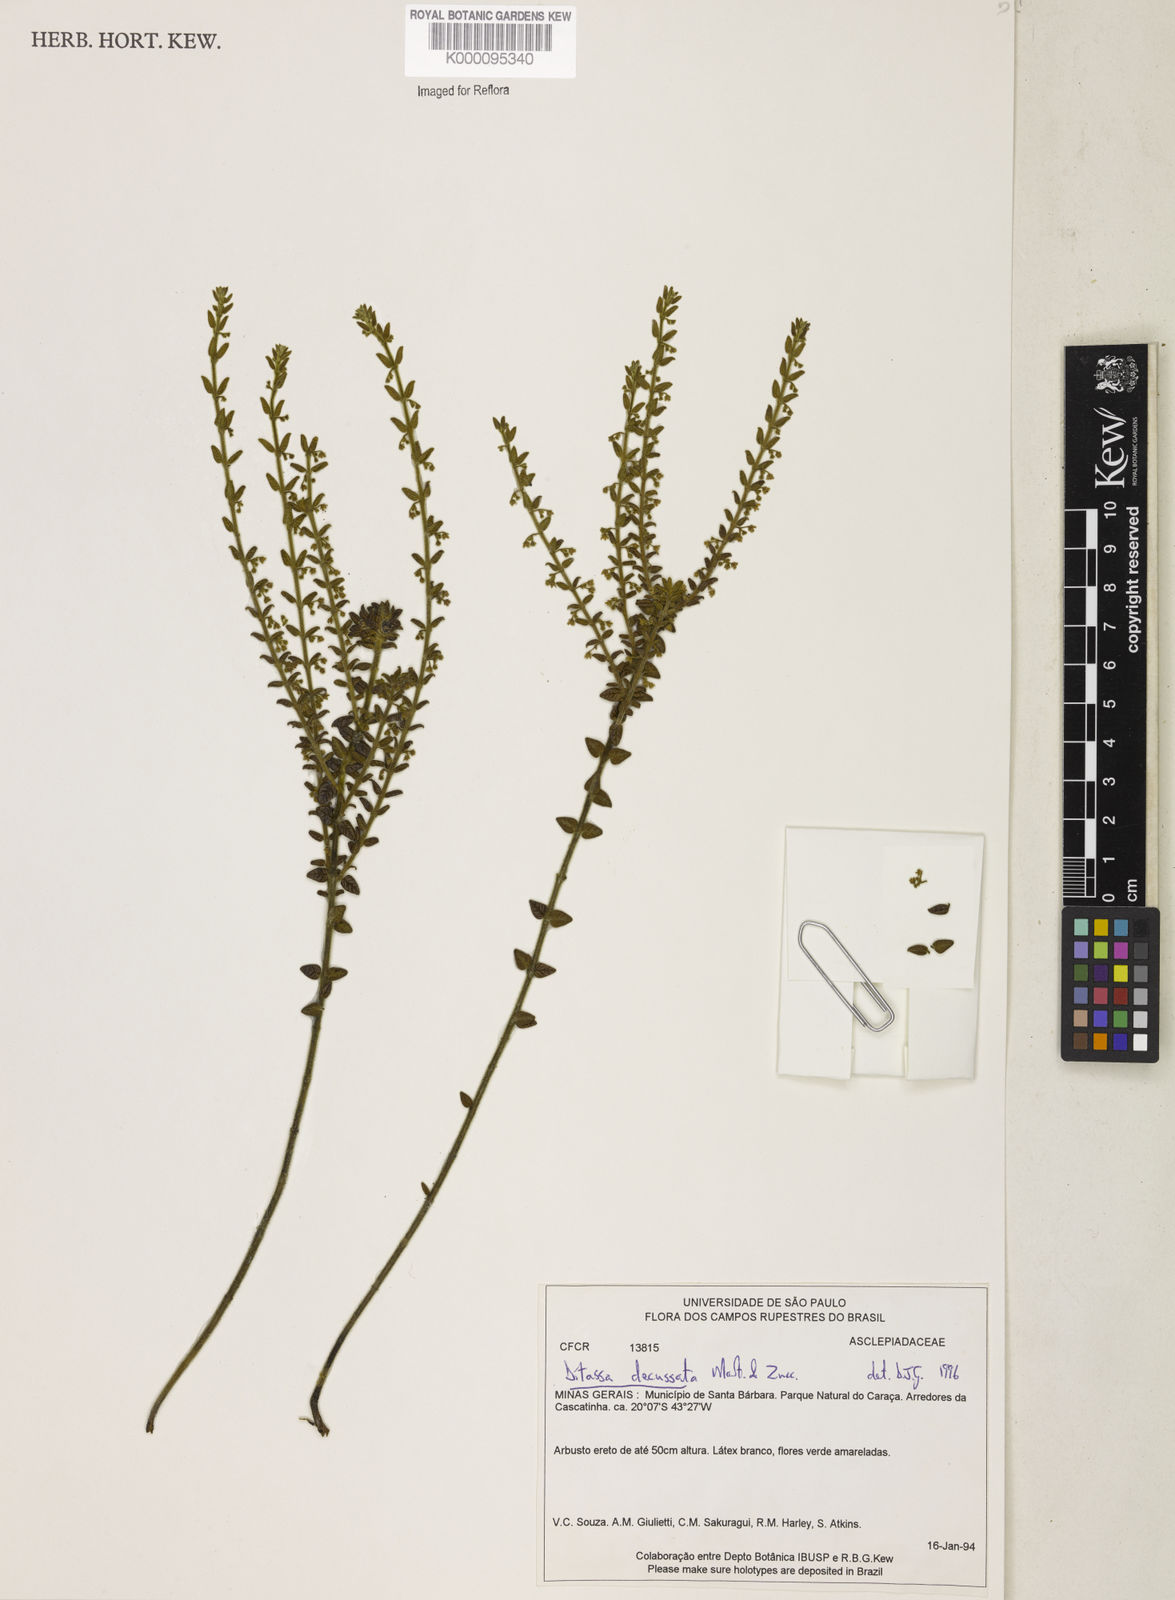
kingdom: Plantae
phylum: Tracheophyta
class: Magnoliopsida
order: Gentianales
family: Apocynaceae
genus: Minaria
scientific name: Minaria decussata
